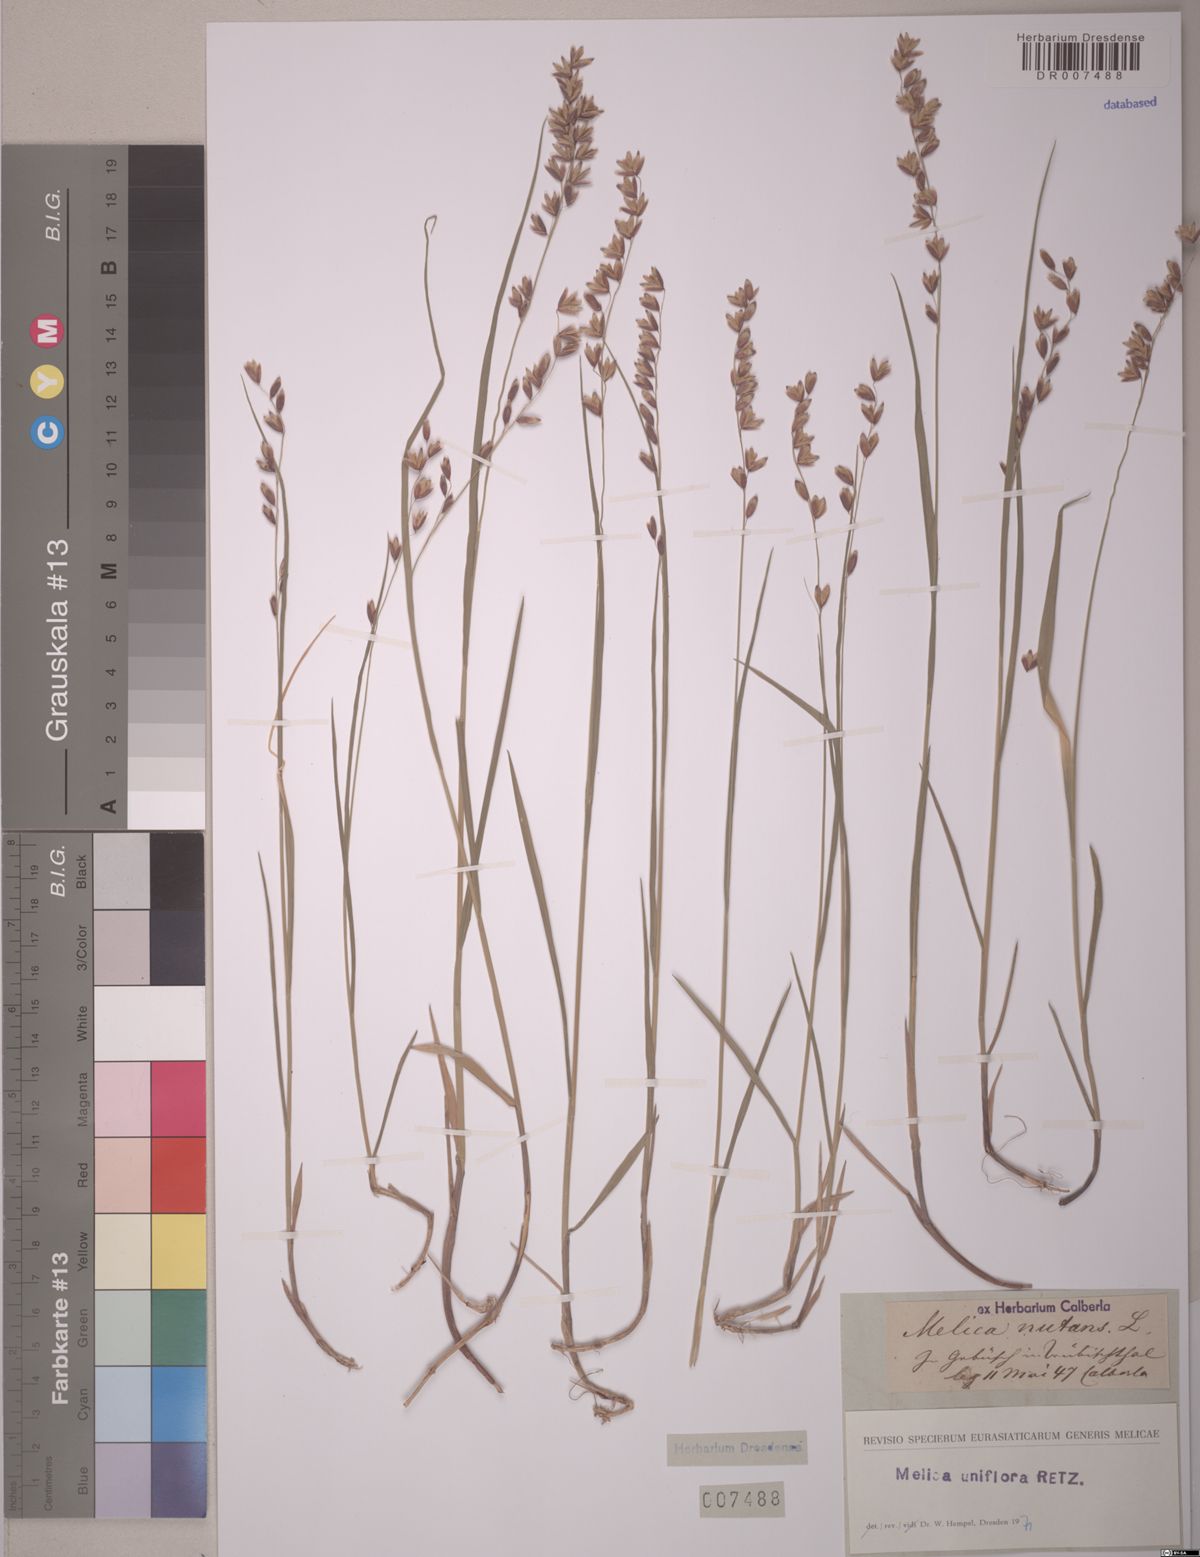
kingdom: Plantae
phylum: Tracheophyta
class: Liliopsida
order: Poales
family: Poaceae
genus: Melica
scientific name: Melica uniflora
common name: Wood melick
